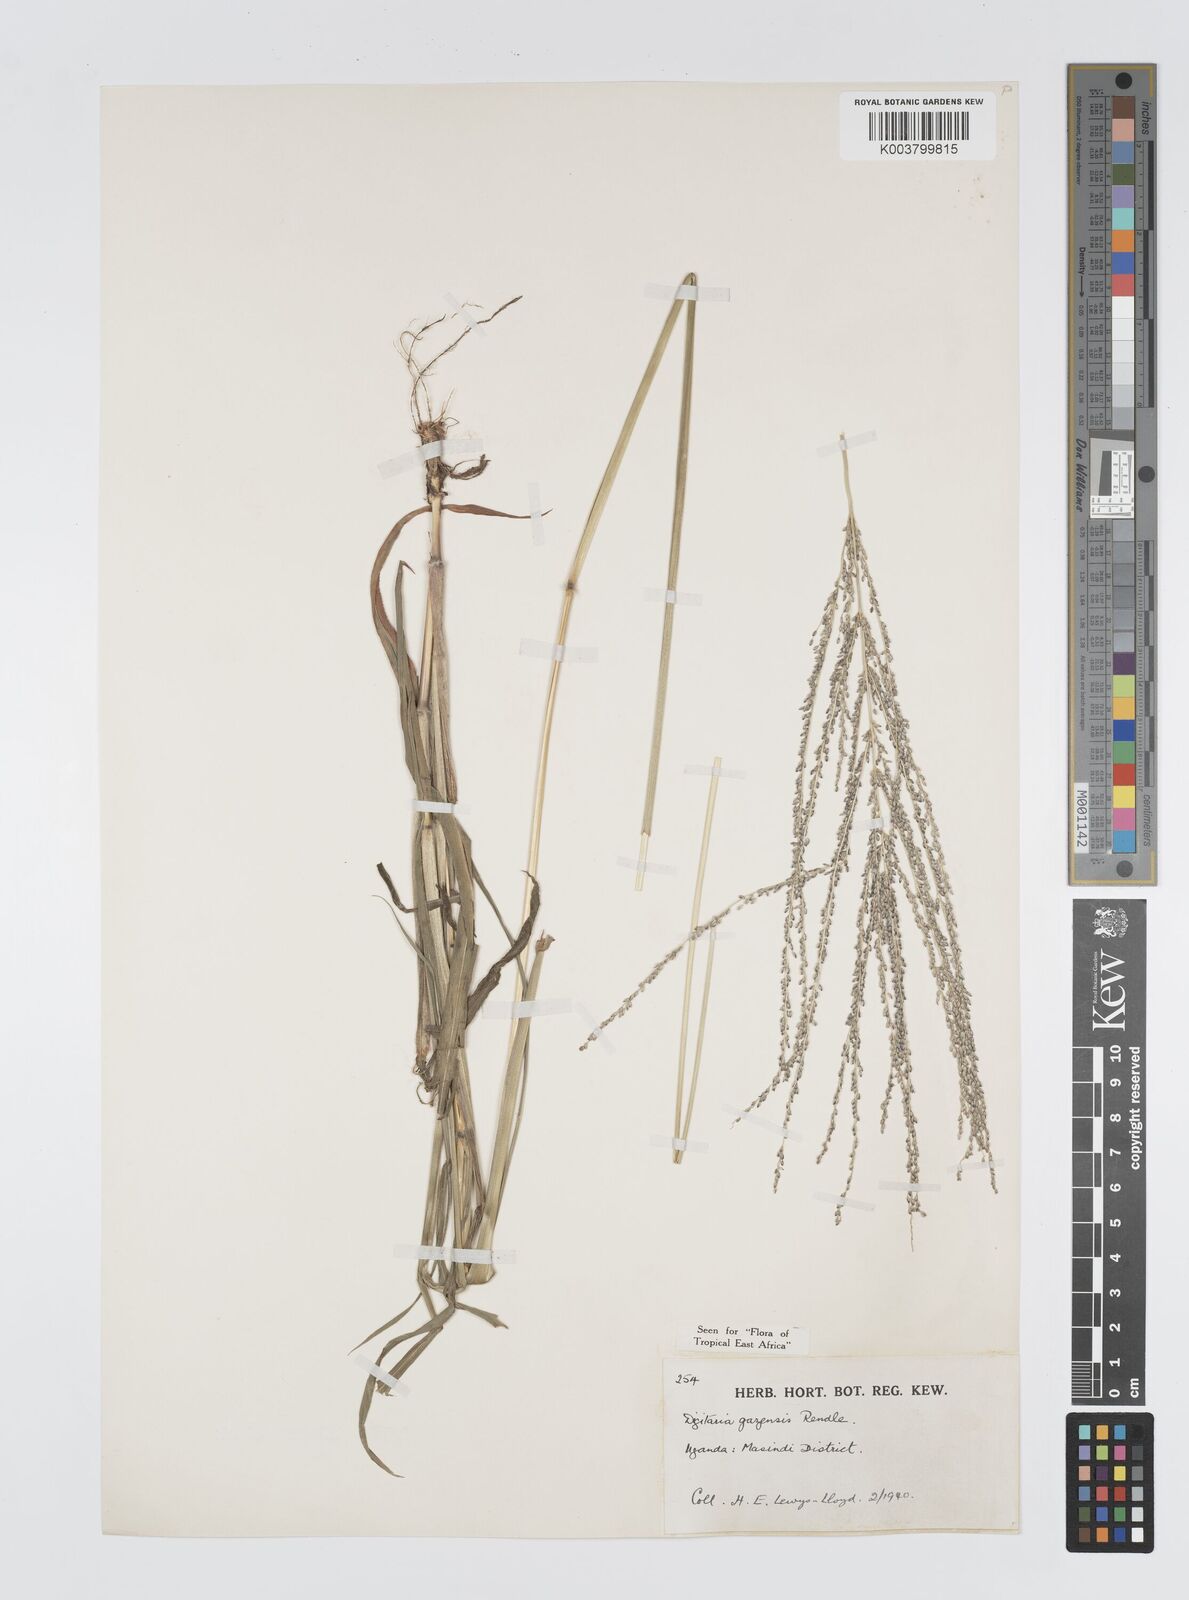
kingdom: Plantae
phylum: Tracheophyta
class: Liliopsida
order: Poales
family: Poaceae
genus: Digitaria
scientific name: Digitaria gazensis
